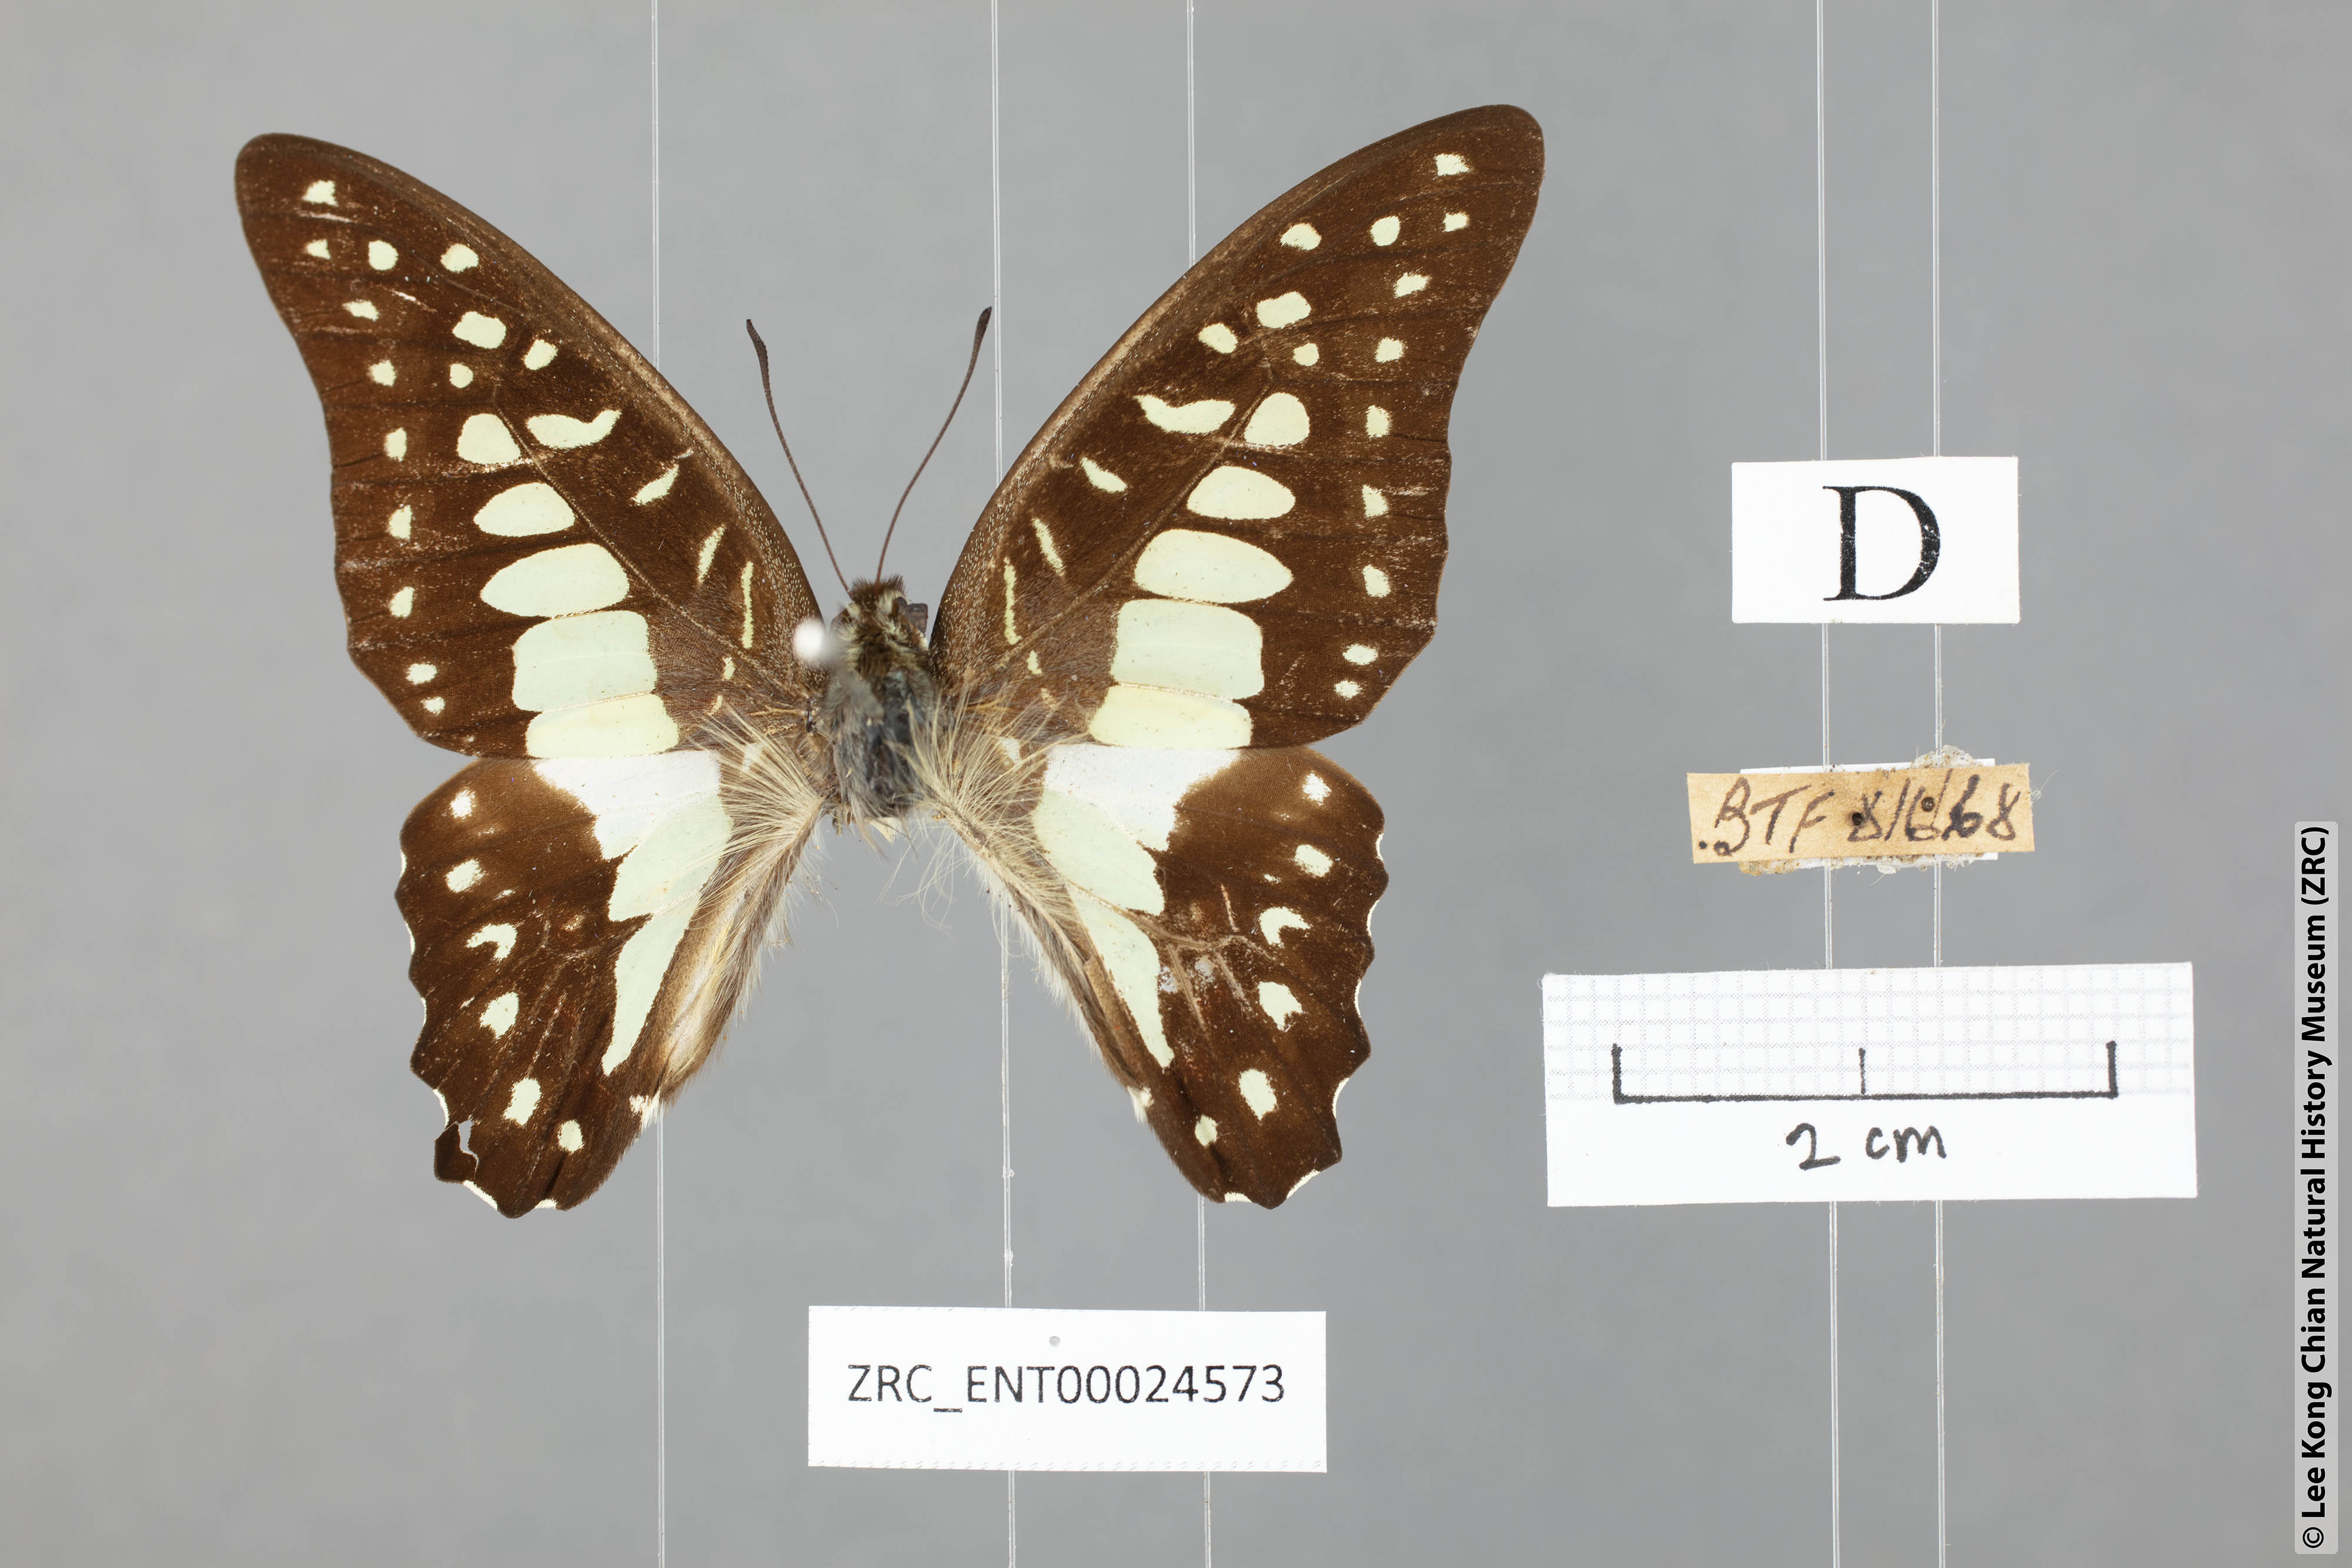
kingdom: Animalia
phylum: Arthropoda
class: Insecta
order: Lepidoptera
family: Papilionidae
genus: Graphium
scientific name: Graphium doson
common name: Common jay
